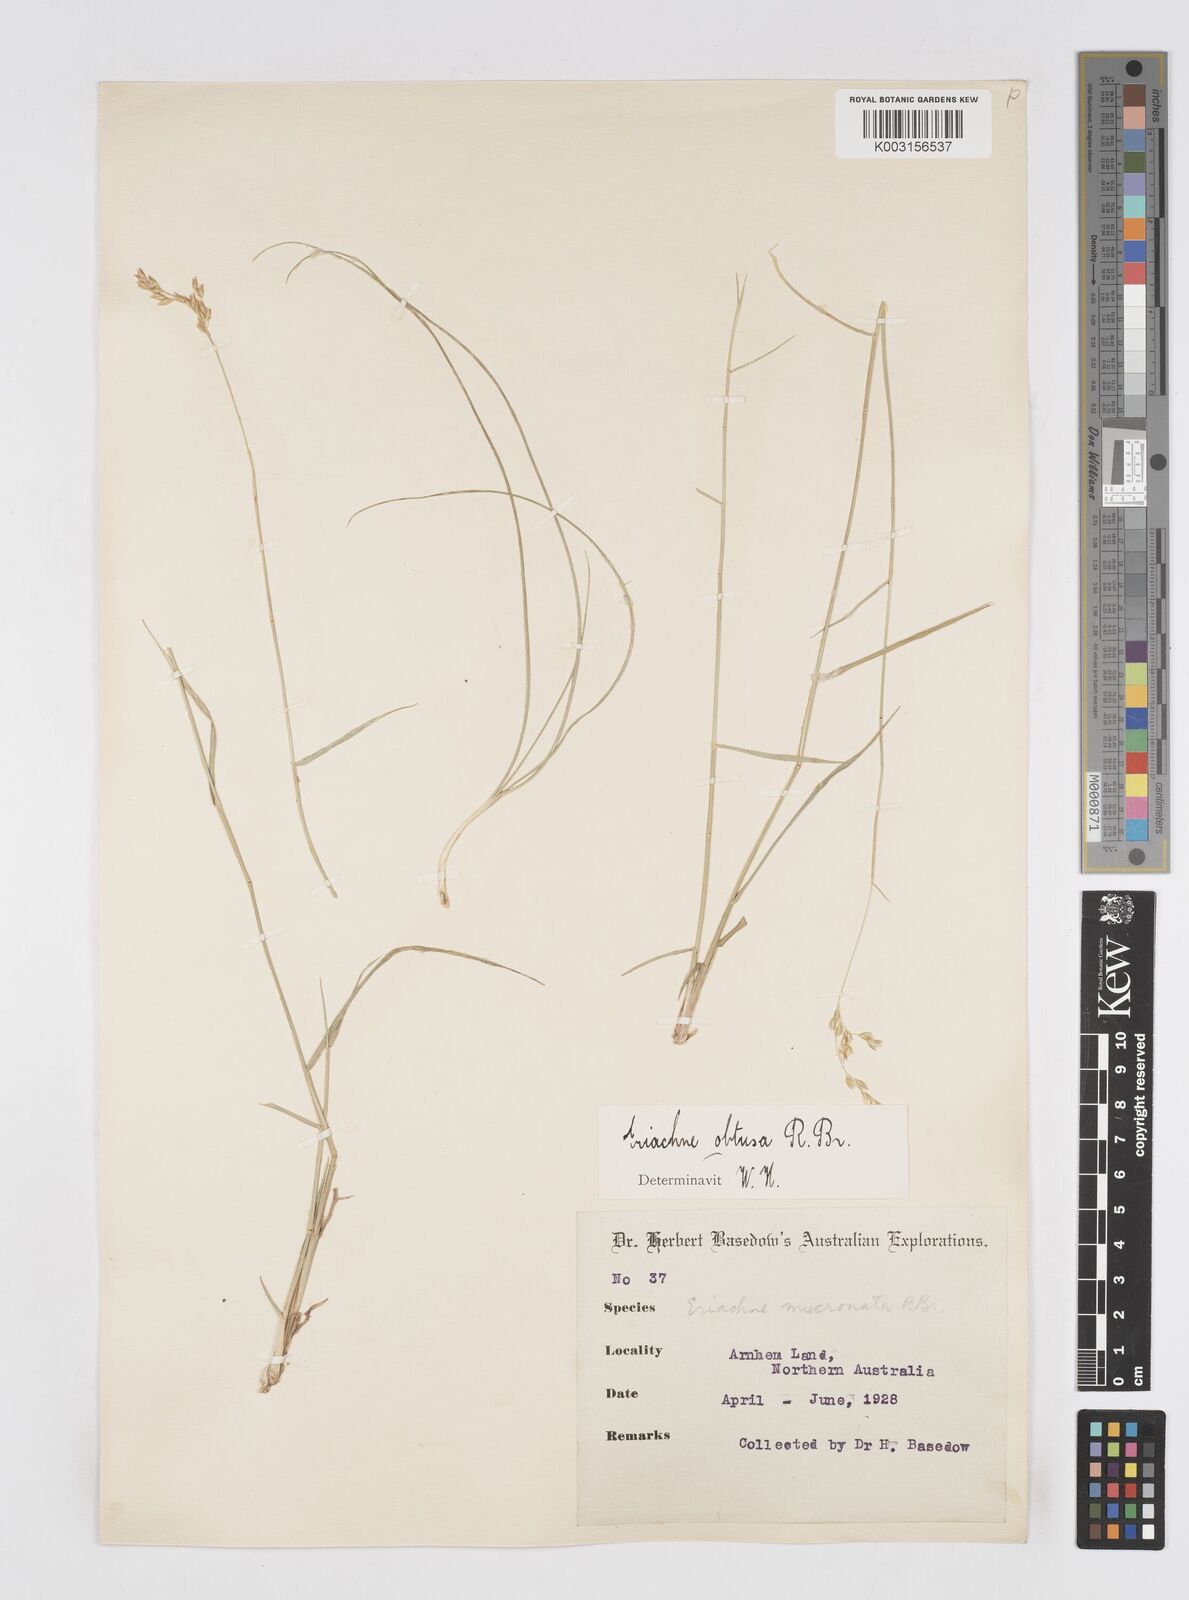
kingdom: Plantae
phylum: Tracheophyta
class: Liliopsida
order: Poales
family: Poaceae
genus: Eriachne
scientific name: Eriachne obtusa
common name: Northern wanderrie grass
